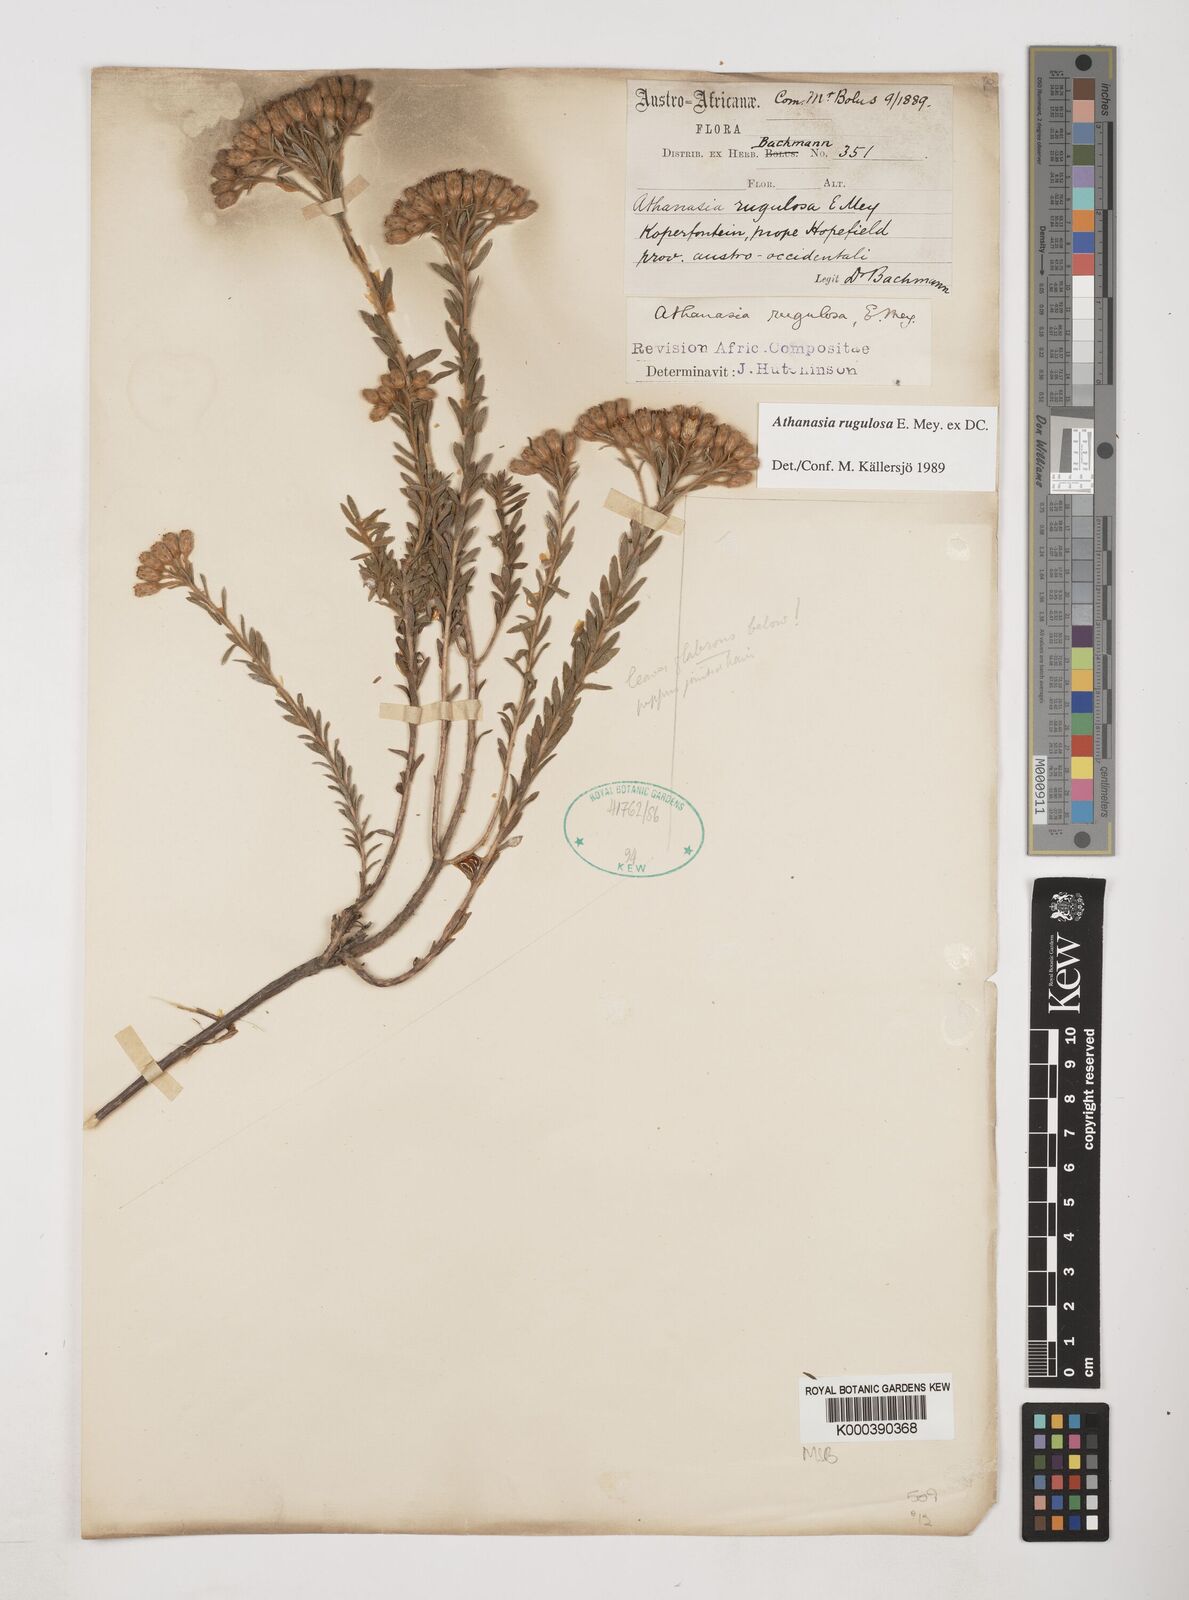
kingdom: Plantae
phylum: Tracheophyta
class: Magnoliopsida
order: Asterales
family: Asteraceae
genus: Athanasia
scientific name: Athanasia rugulosa
